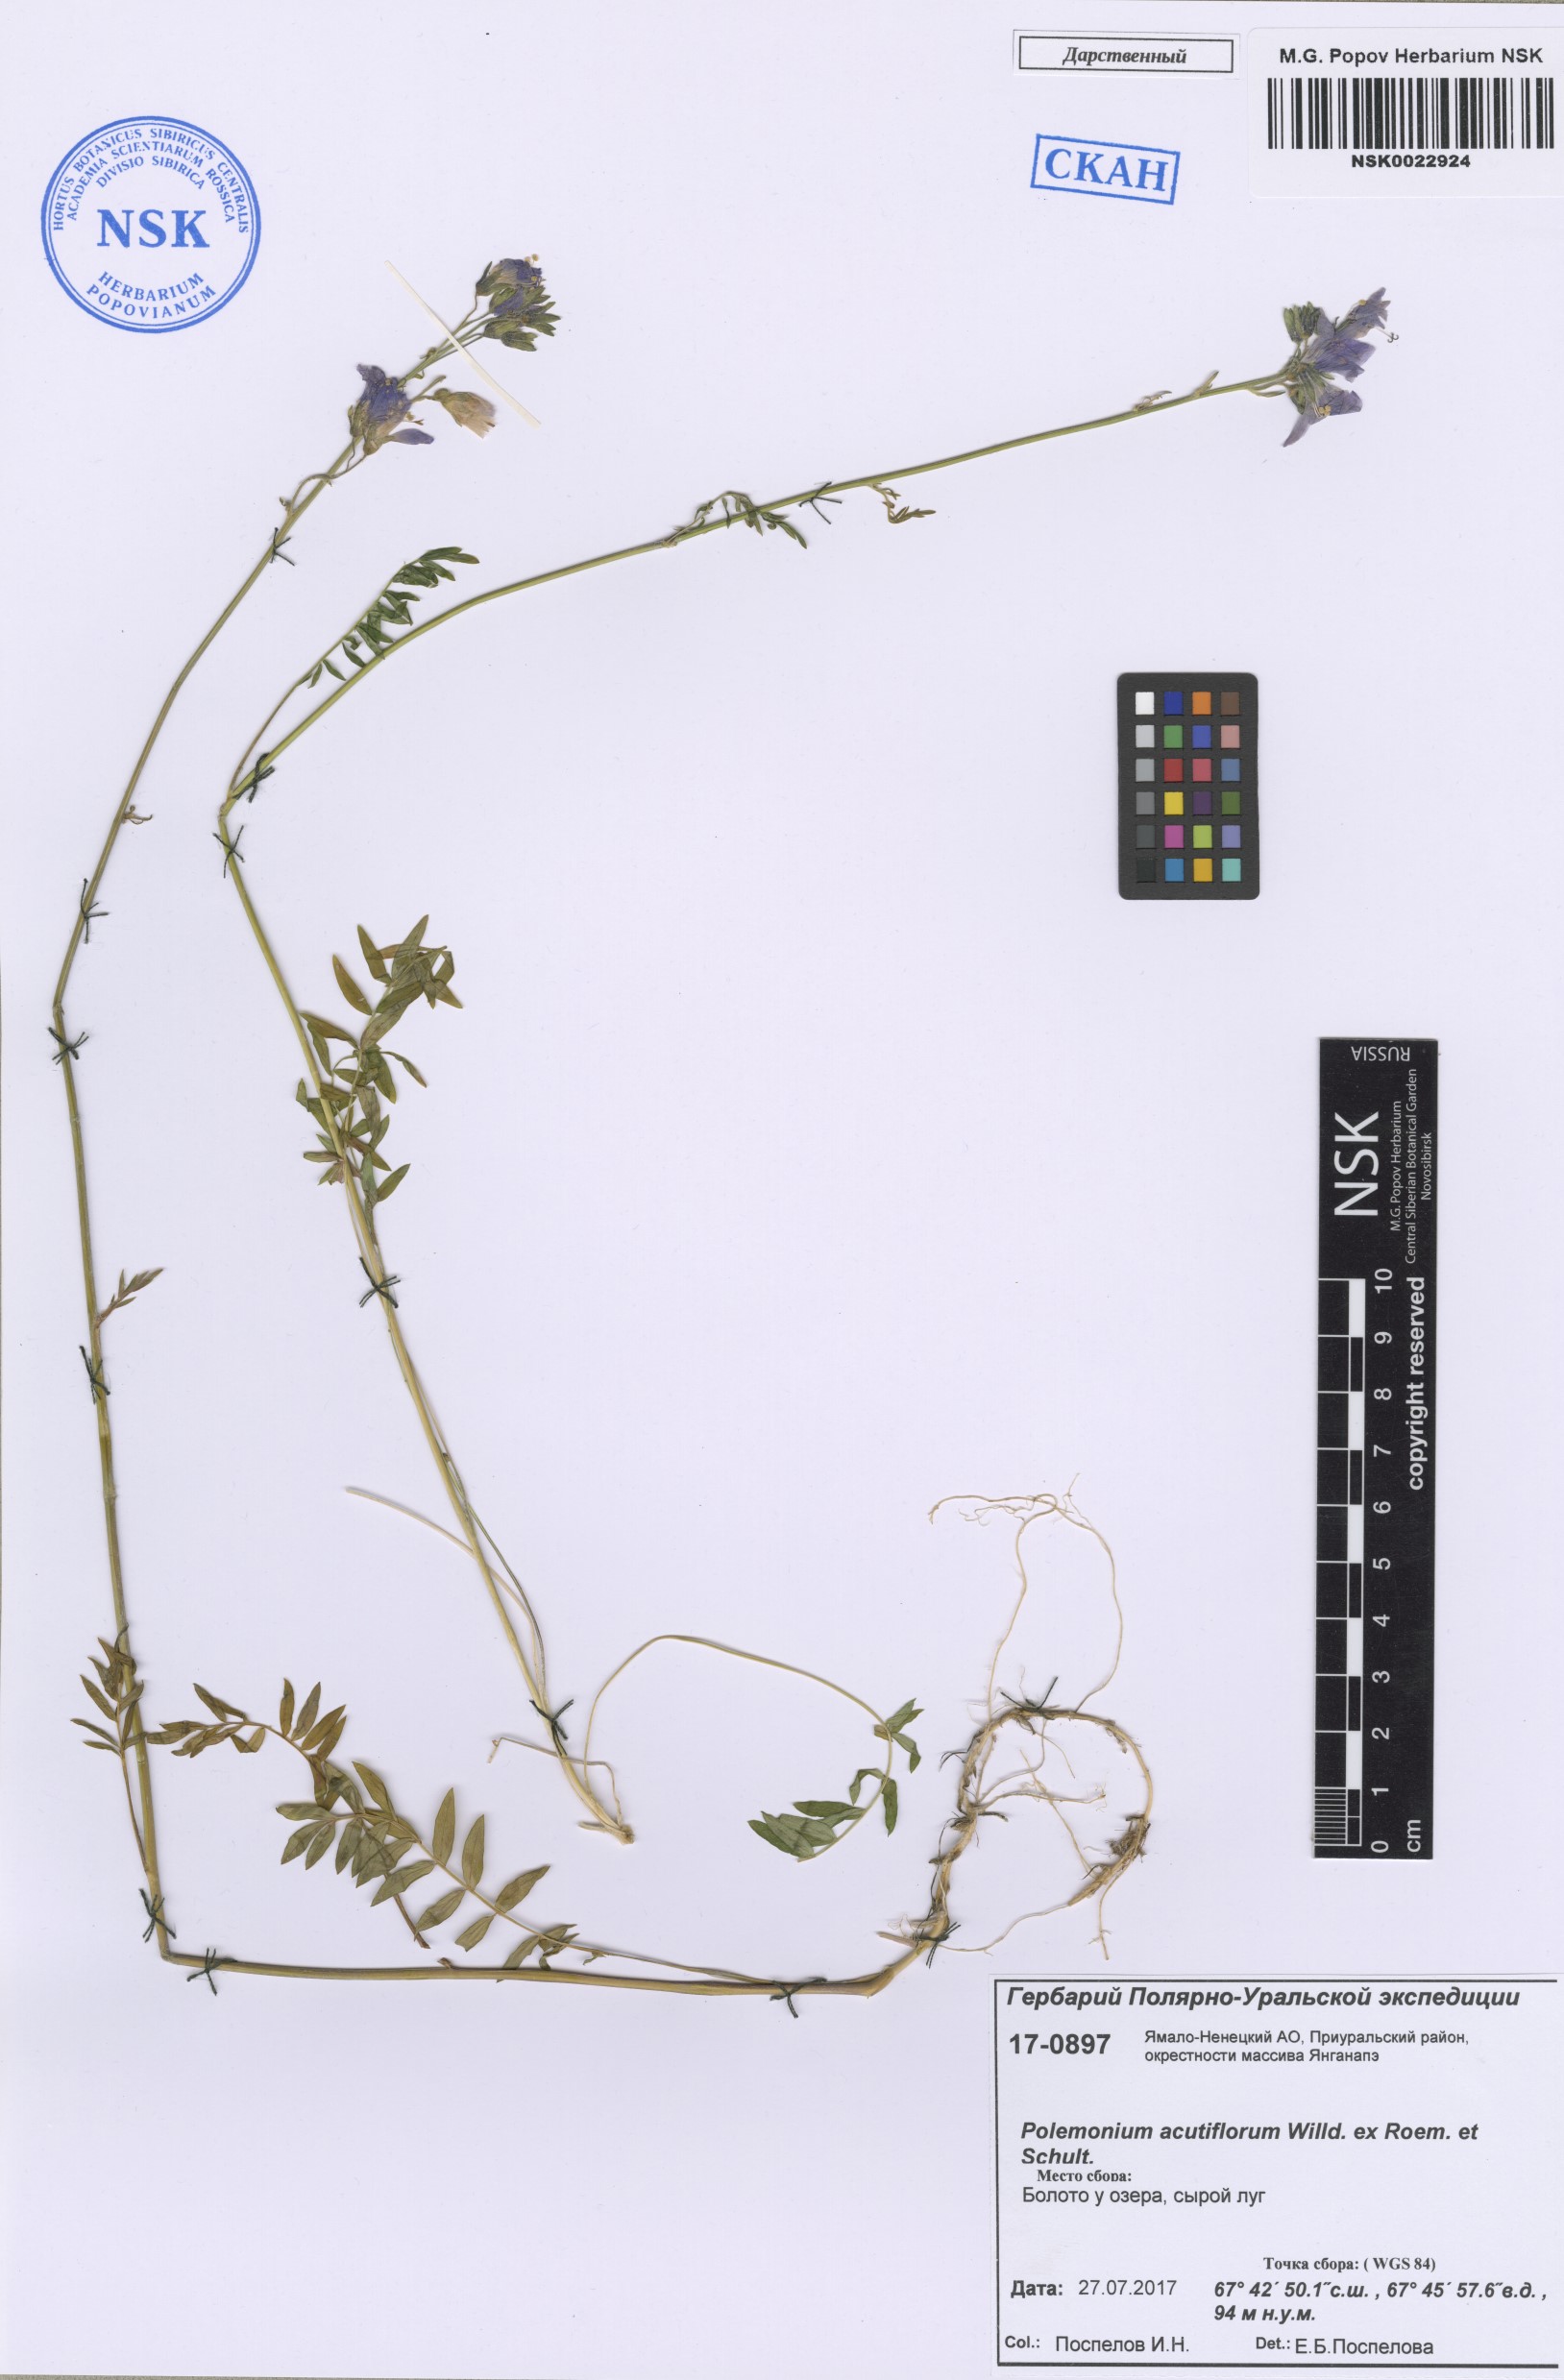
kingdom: Plantae
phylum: Tracheophyta
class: Magnoliopsida
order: Ericales
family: Polemoniaceae
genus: Polemonium
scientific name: Polemonium acutiflorum
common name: Tall jacob's-ladder
